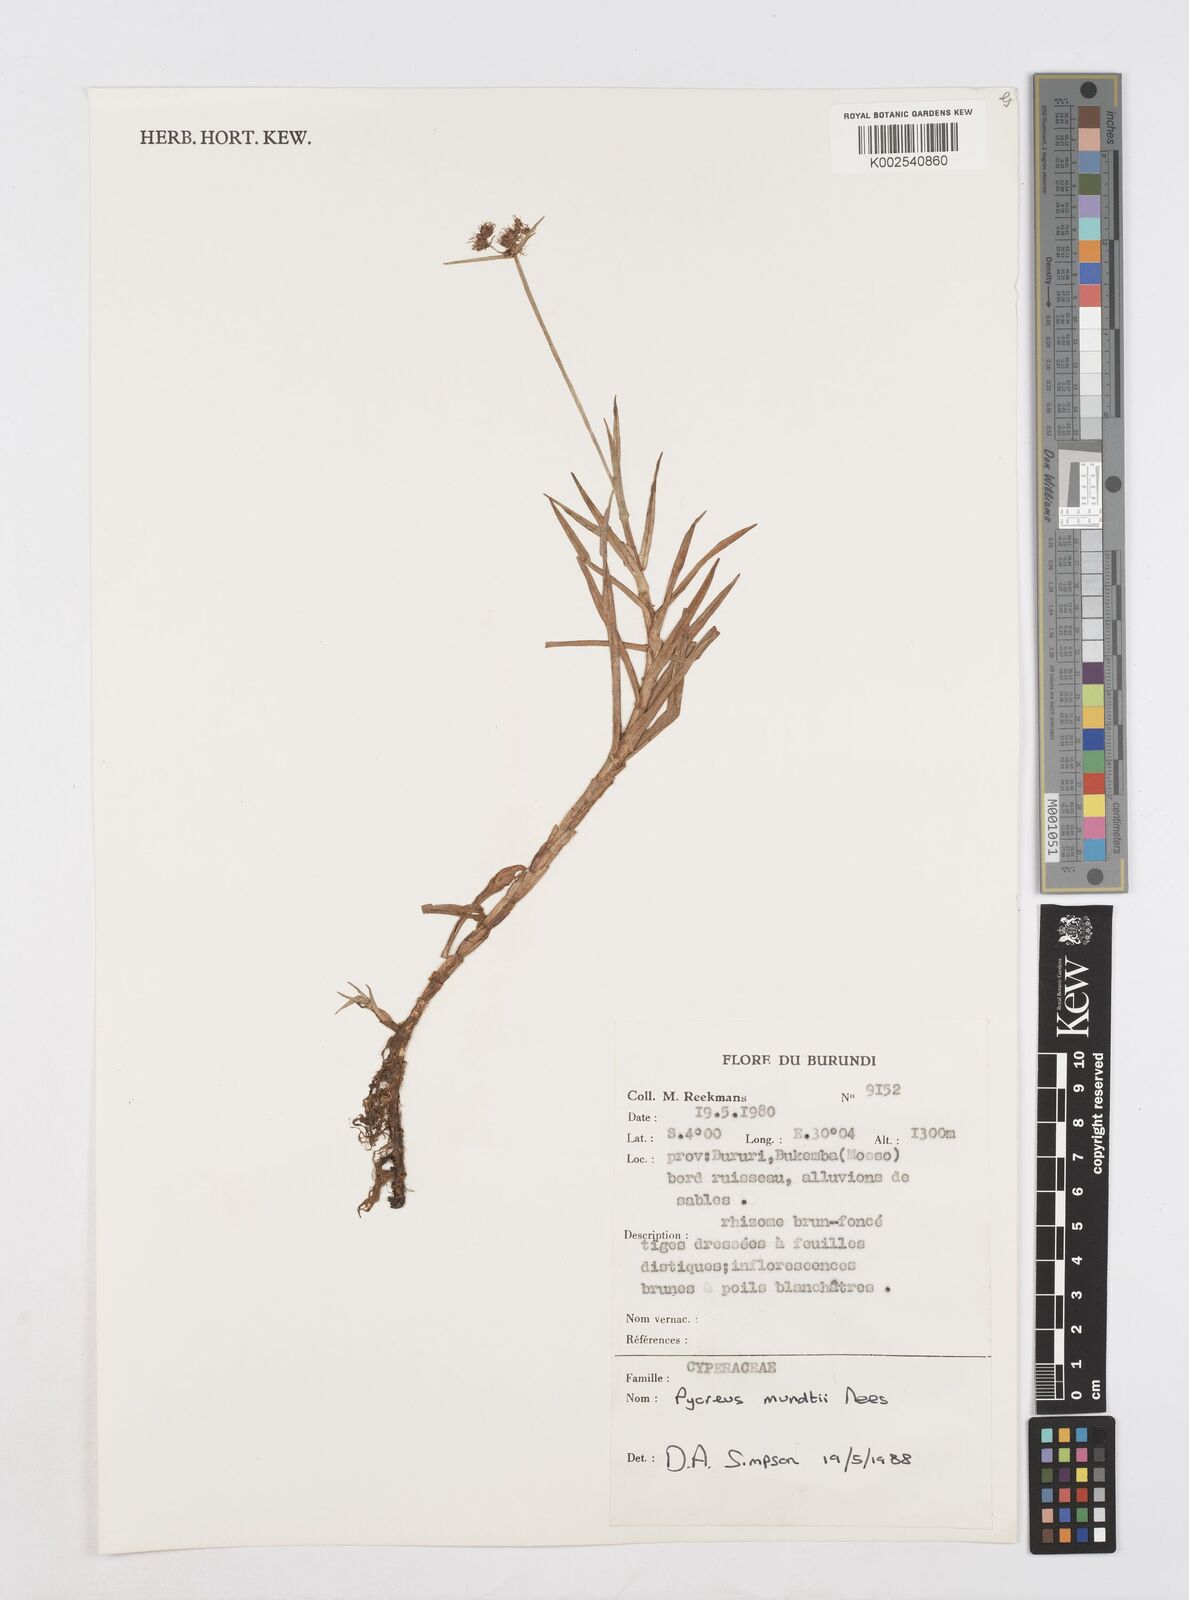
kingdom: Plantae
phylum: Tracheophyta
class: Liliopsida
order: Poales
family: Cyperaceae
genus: Cyperus
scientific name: Cyperus mundii
